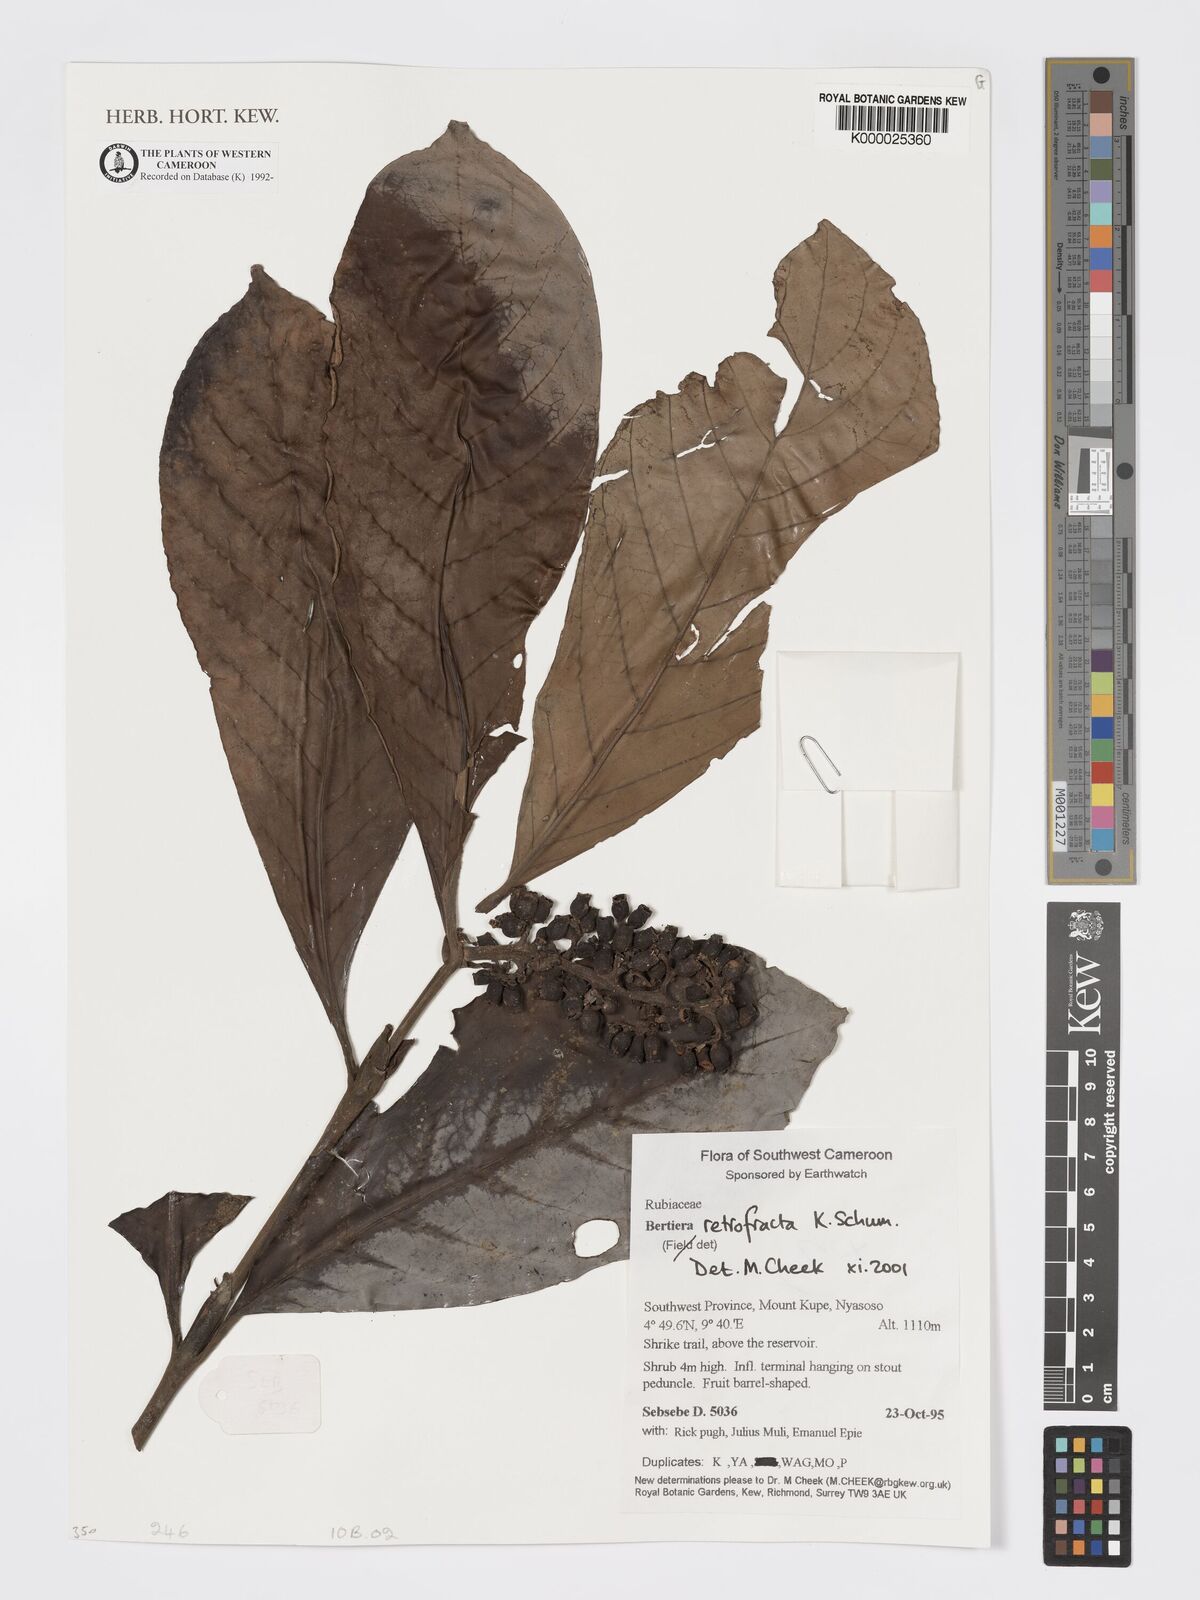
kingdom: Plantae
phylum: Tracheophyta
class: Magnoliopsida
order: Gentianales
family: Rubiaceae
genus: Bertiera
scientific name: Bertiera retrofracta
